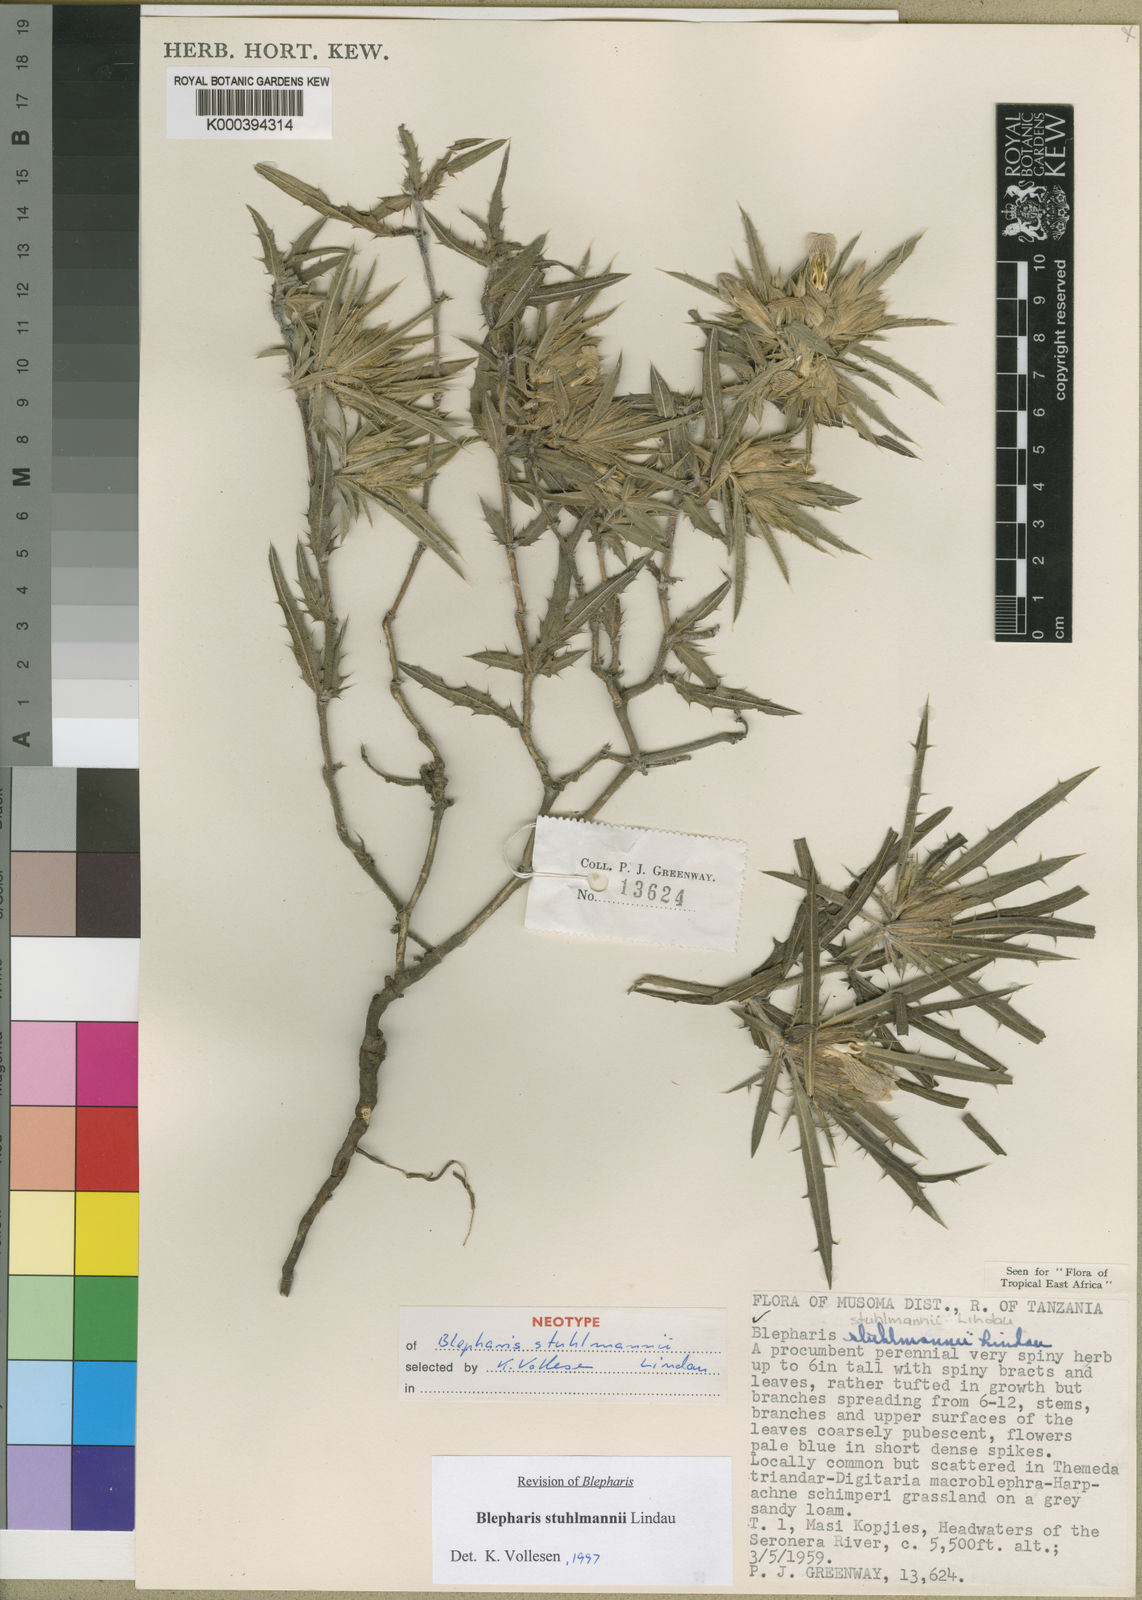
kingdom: Plantae
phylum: Tracheophyta
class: Magnoliopsida
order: Lamiales
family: Acanthaceae
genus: Blepharis
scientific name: Blepharis stuhlmannii
